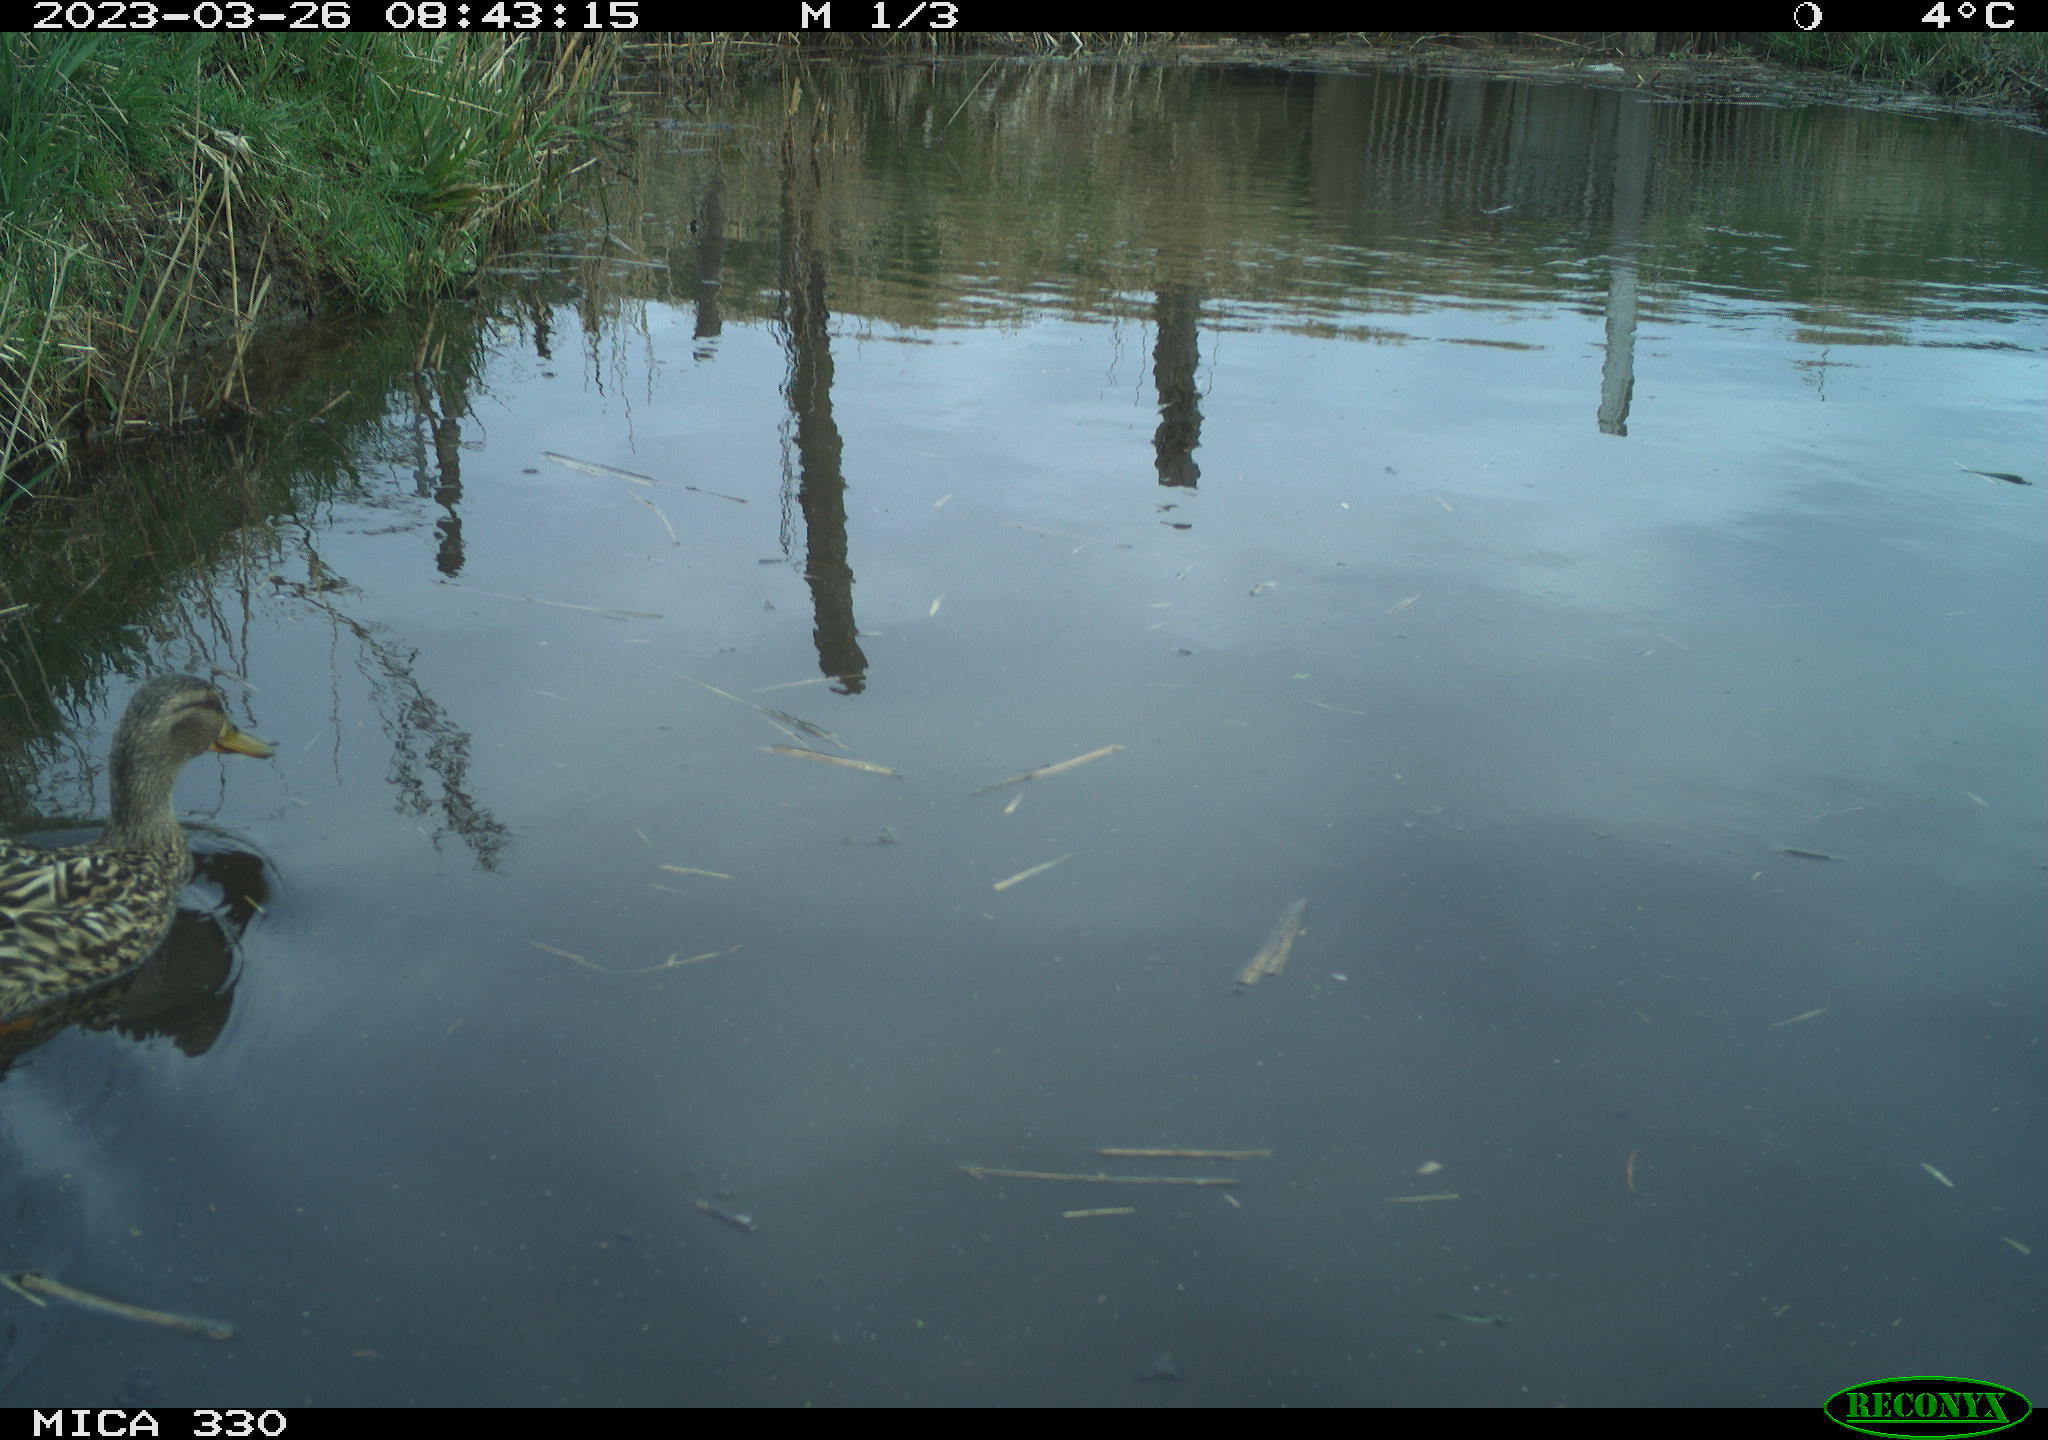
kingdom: Animalia
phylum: Chordata
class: Aves
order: Anseriformes
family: Anatidae
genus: Anas
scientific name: Anas
